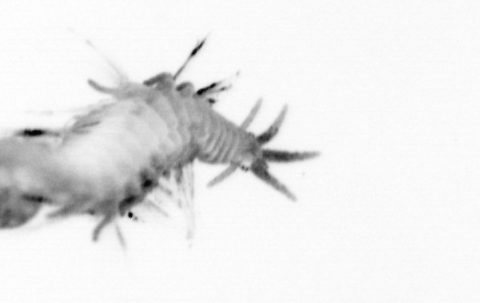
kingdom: Animalia
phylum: Annelida
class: Polychaeta
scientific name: Polychaeta
